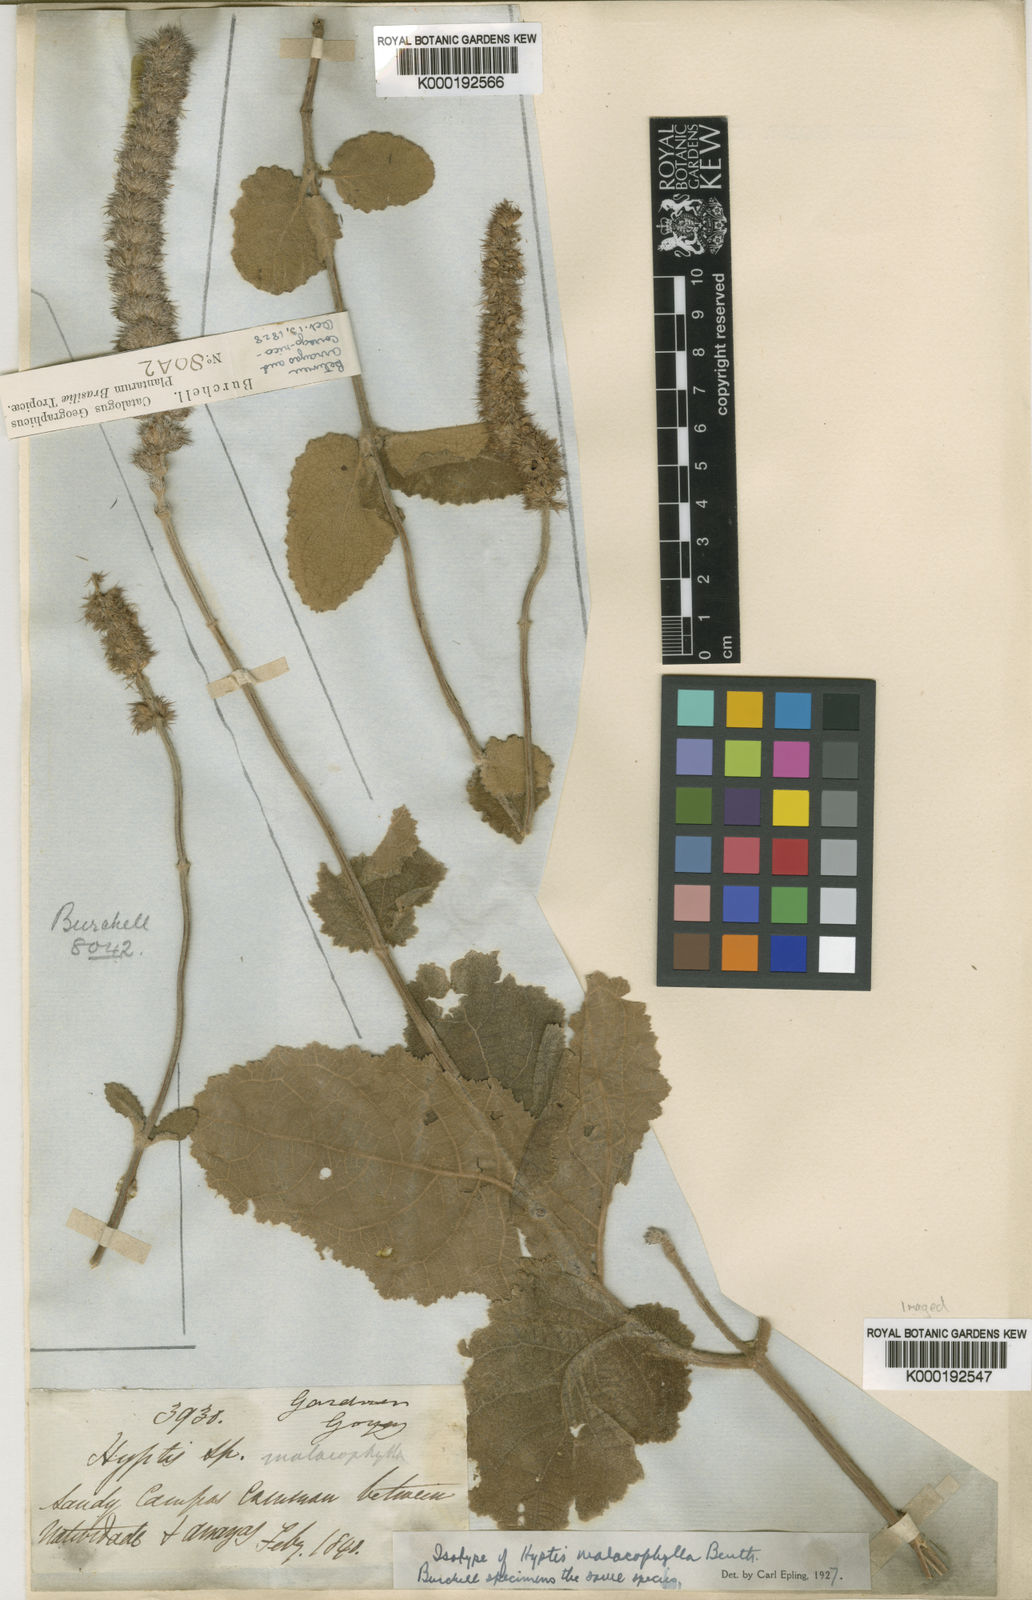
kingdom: Plantae
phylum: Tracheophyta
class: Magnoliopsida
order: Lamiales
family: Lamiaceae
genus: Gymneia
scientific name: Gymneia malacophylla
